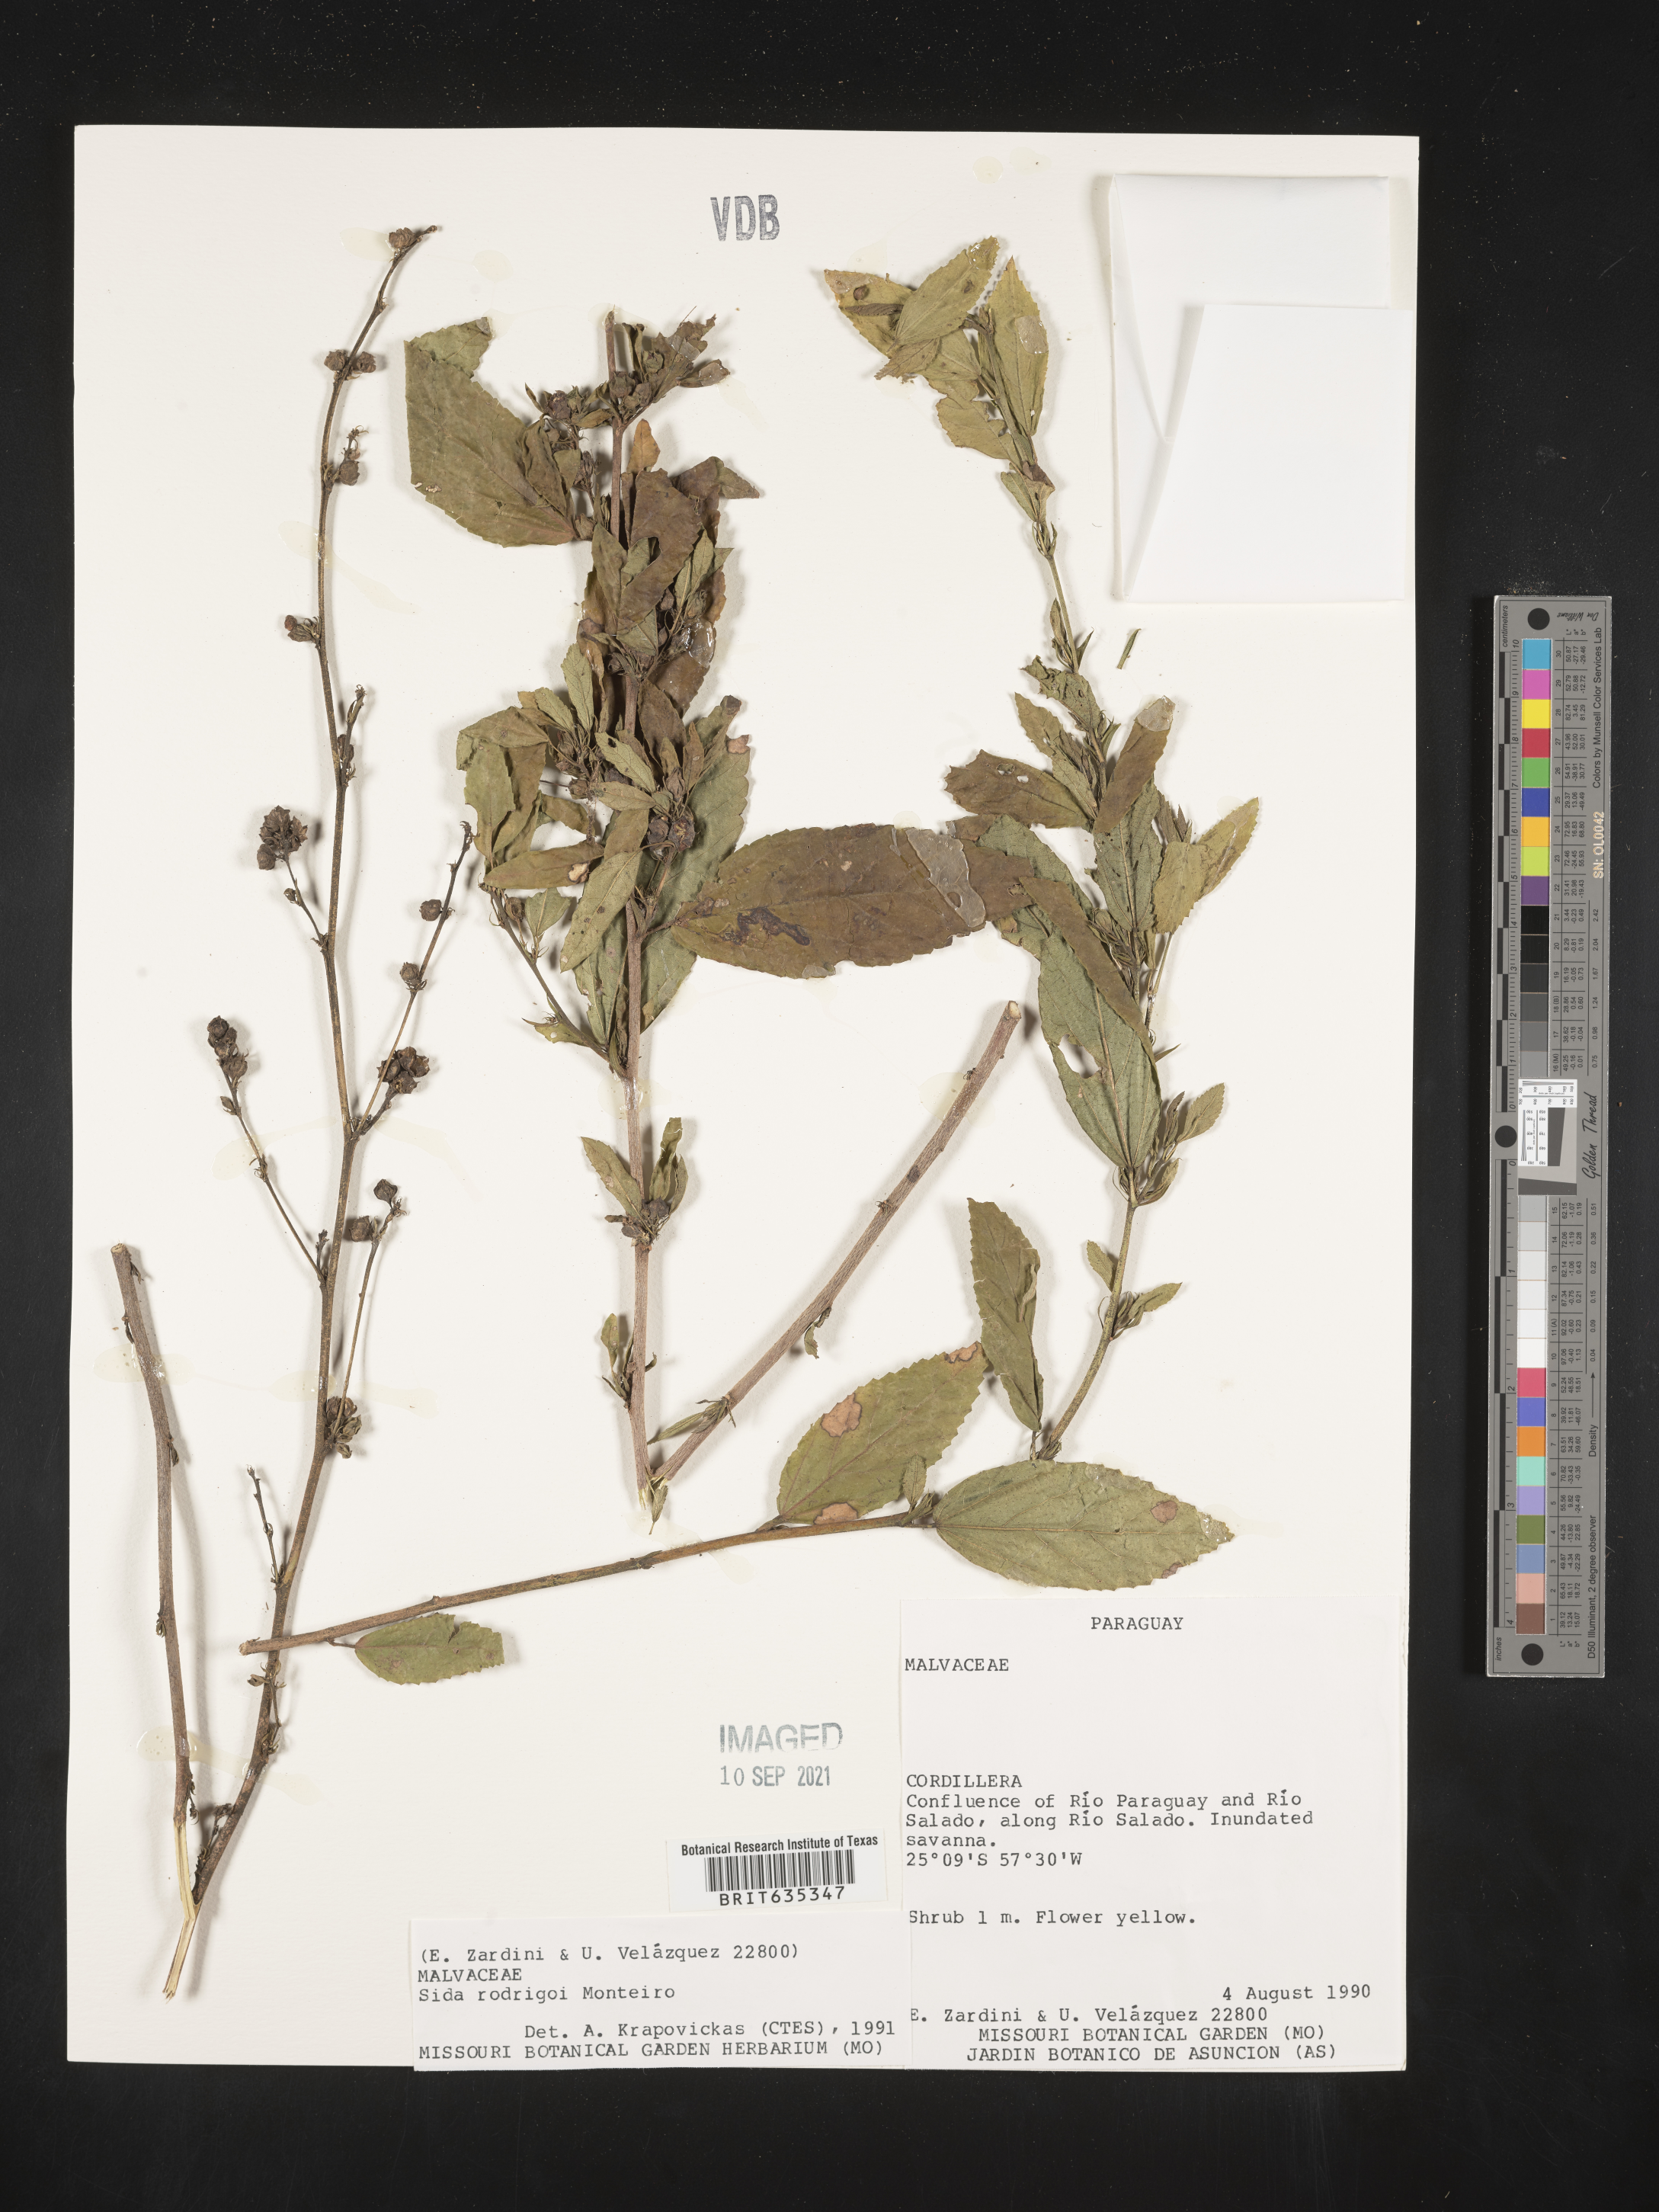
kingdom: Plantae
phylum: Tracheophyta
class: Magnoliopsida
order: Malvales
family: Malvaceae
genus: Sida
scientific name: Sida
